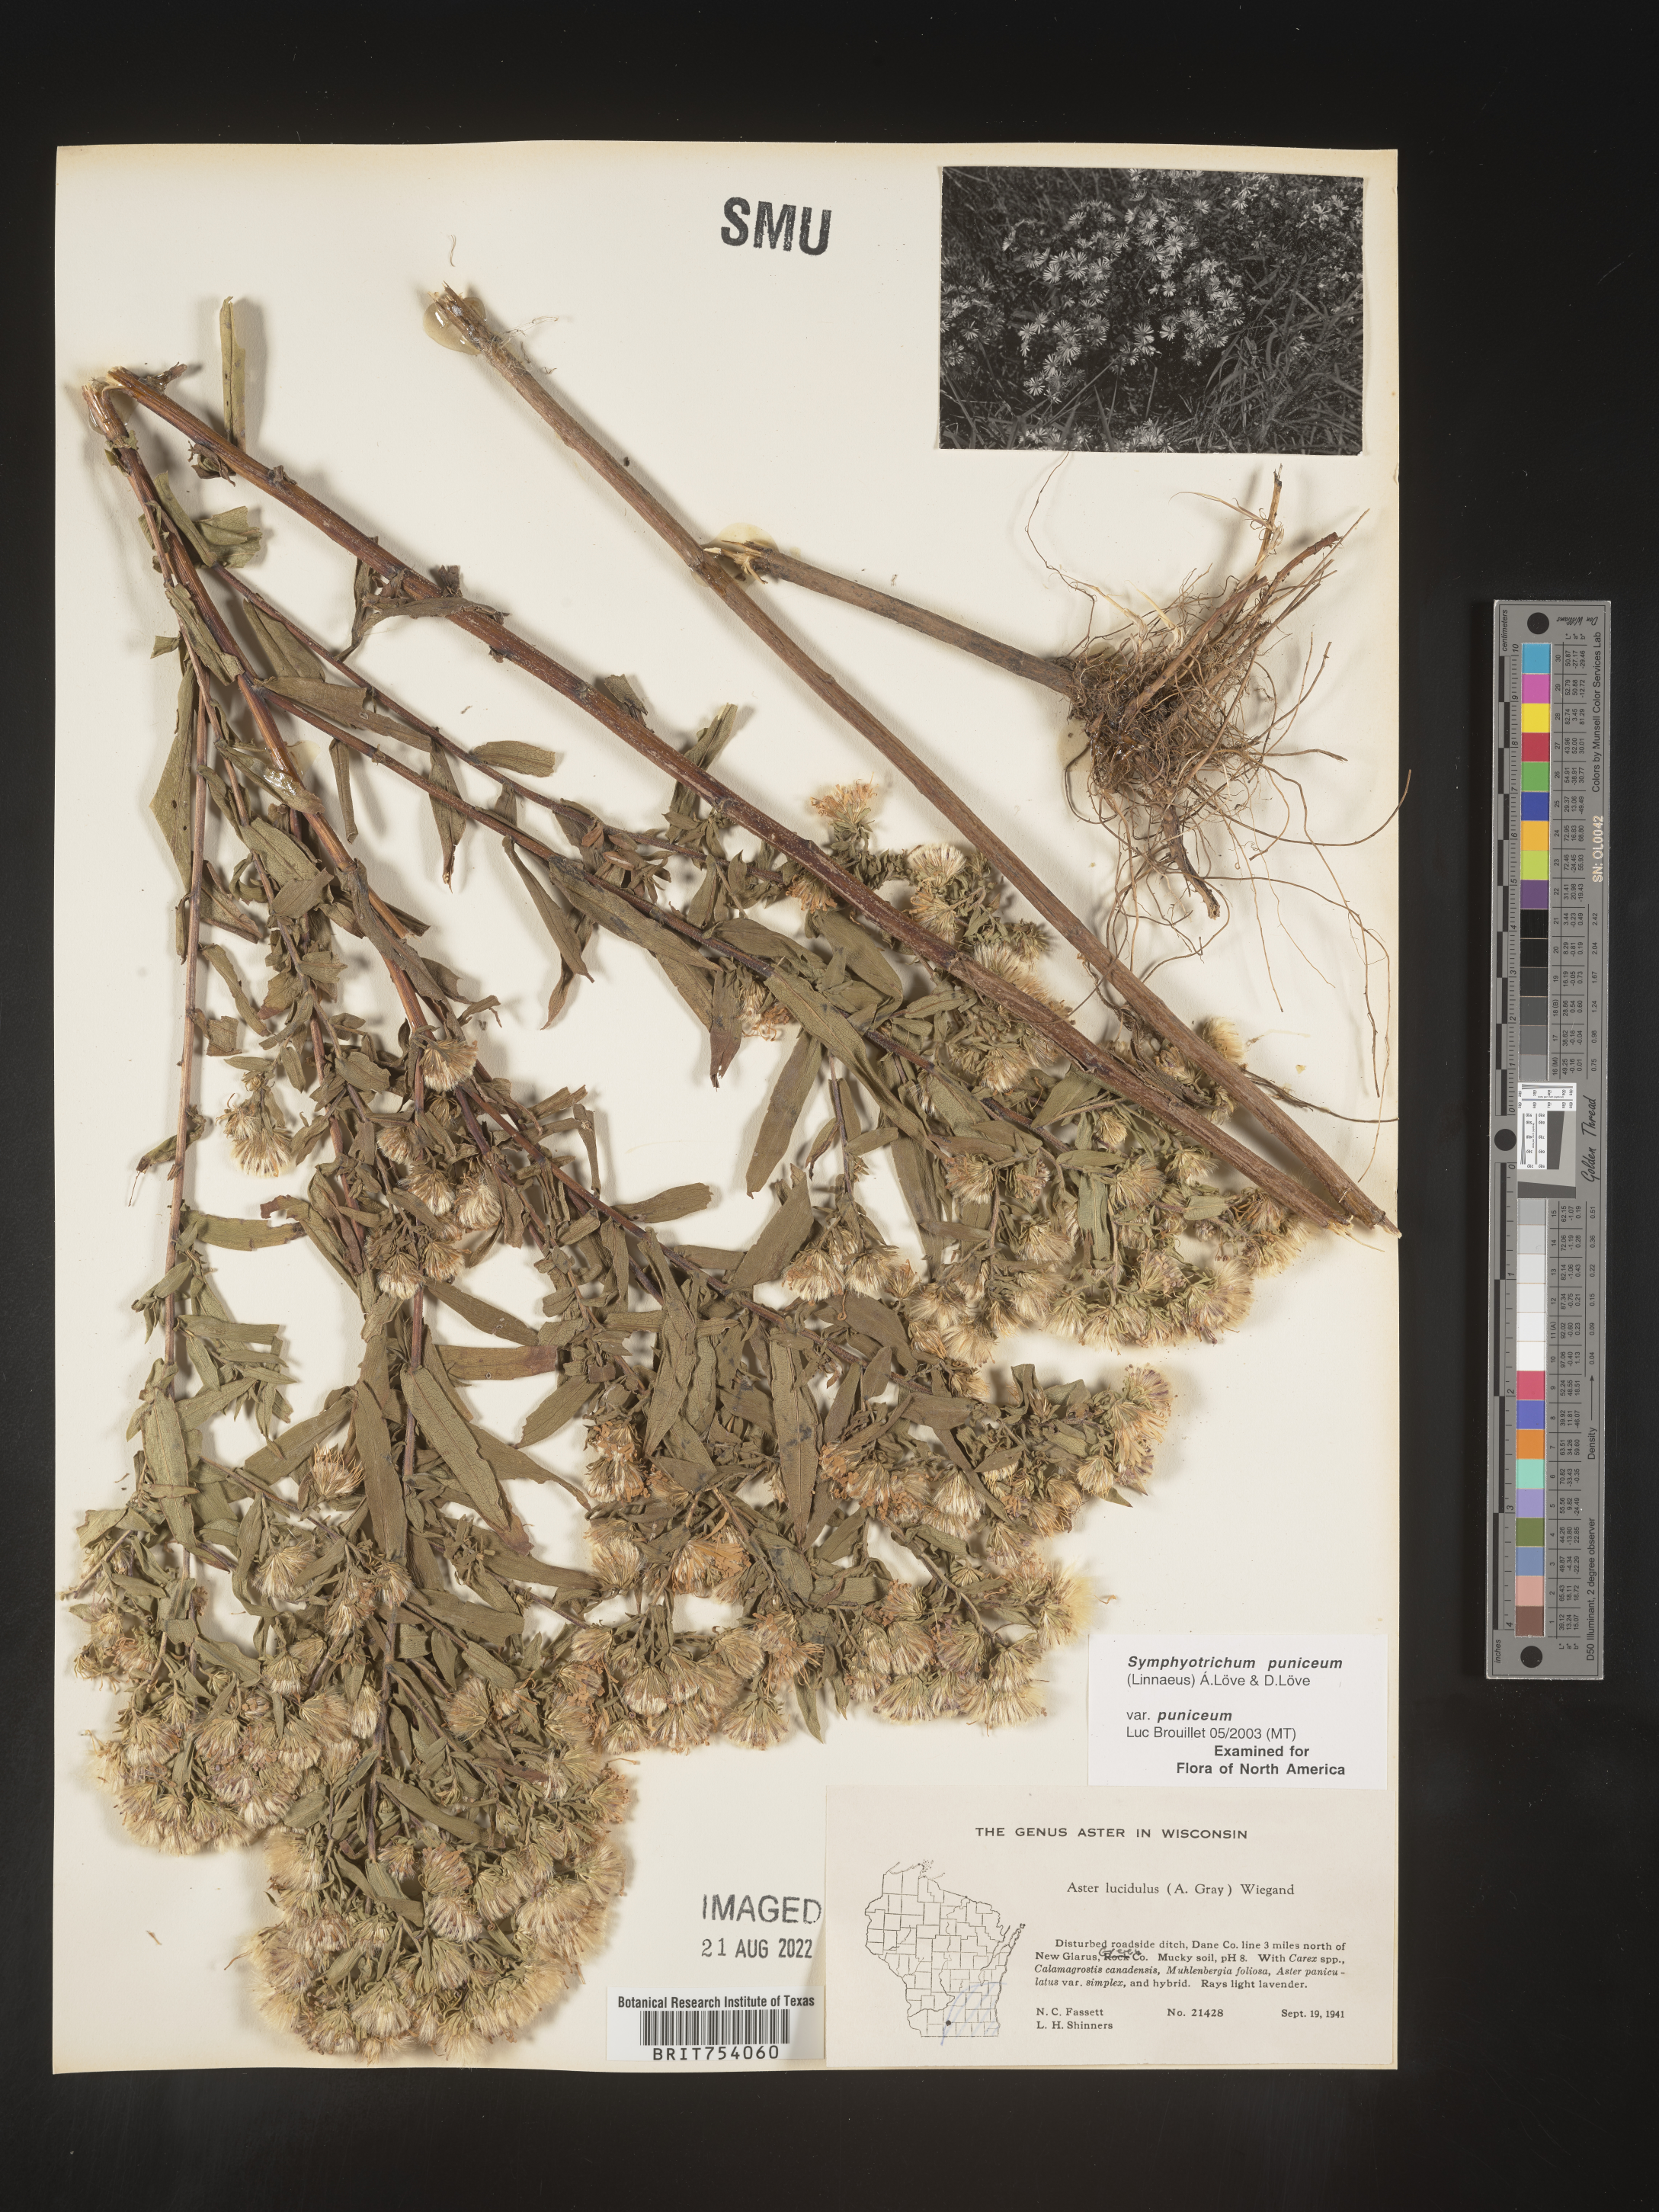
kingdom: Plantae
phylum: Tracheophyta
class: Magnoliopsida
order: Asterales
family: Asteraceae
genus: Symphyotrichum
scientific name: Symphyotrichum puniceum
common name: Bog aster
